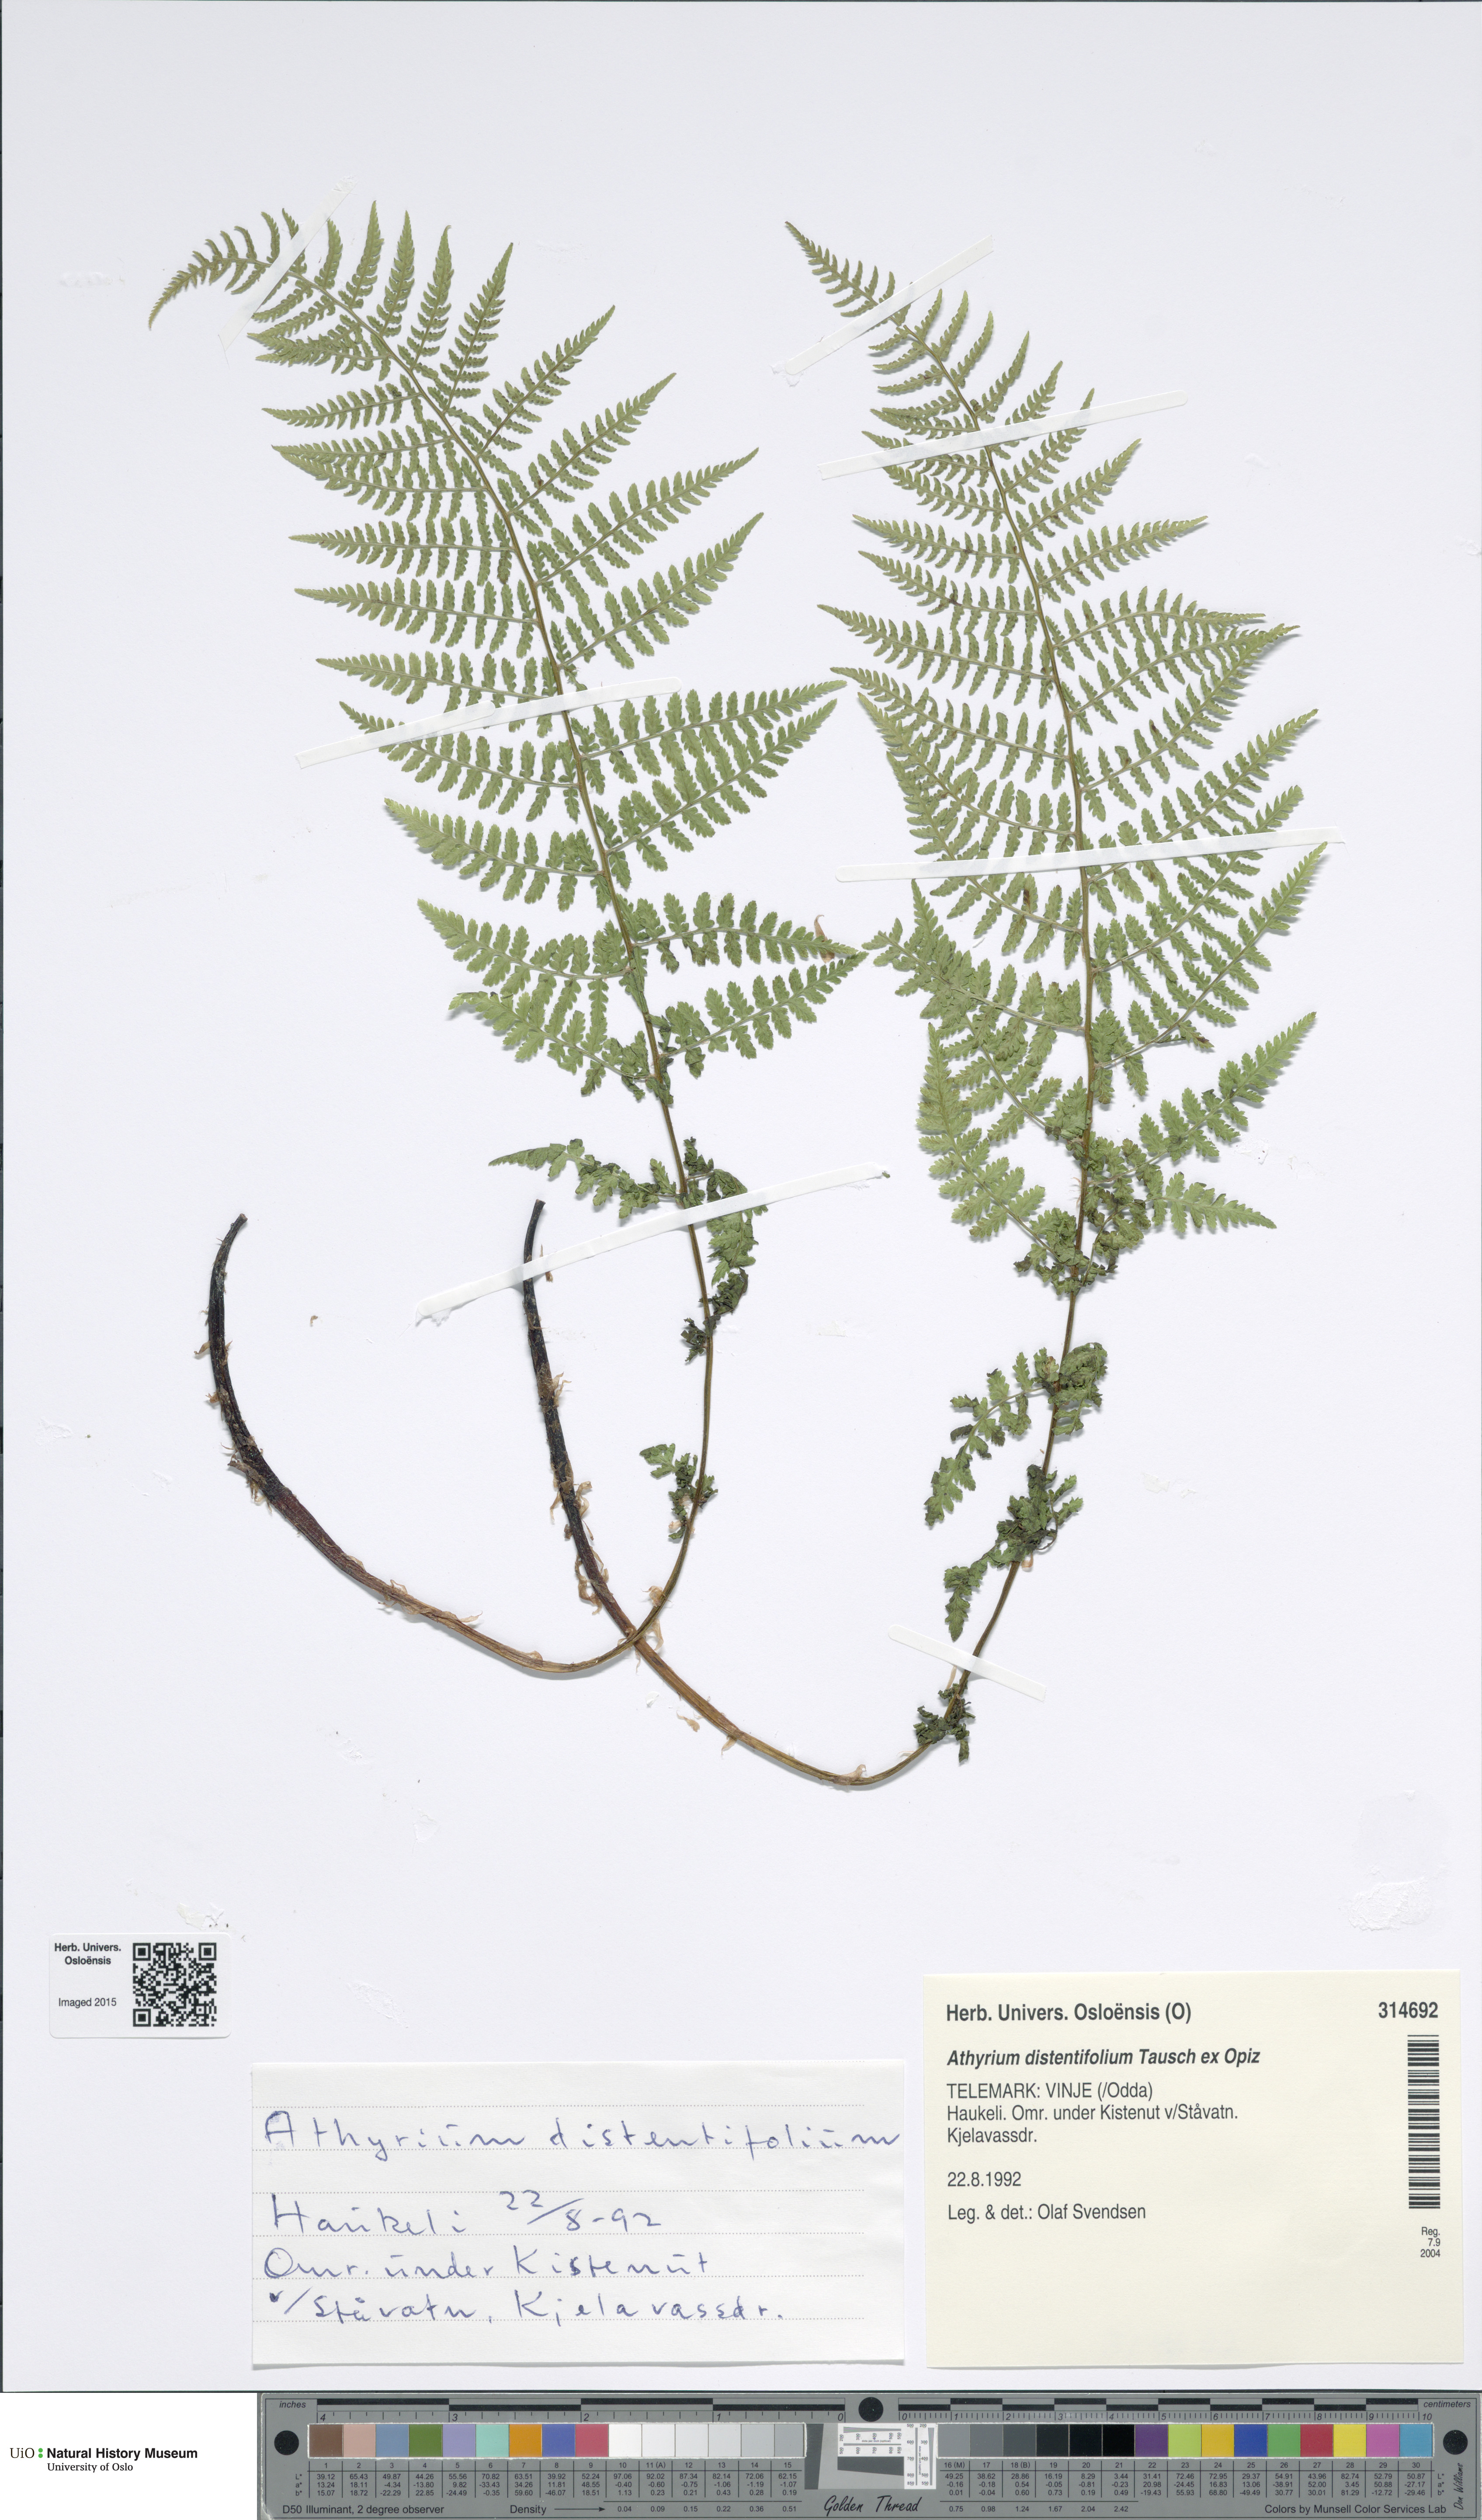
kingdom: Plantae
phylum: Tracheophyta
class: Polypodiopsida
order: Polypodiales
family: Athyriaceae
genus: Pseudathyrium
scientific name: Pseudathyrium alpestre
